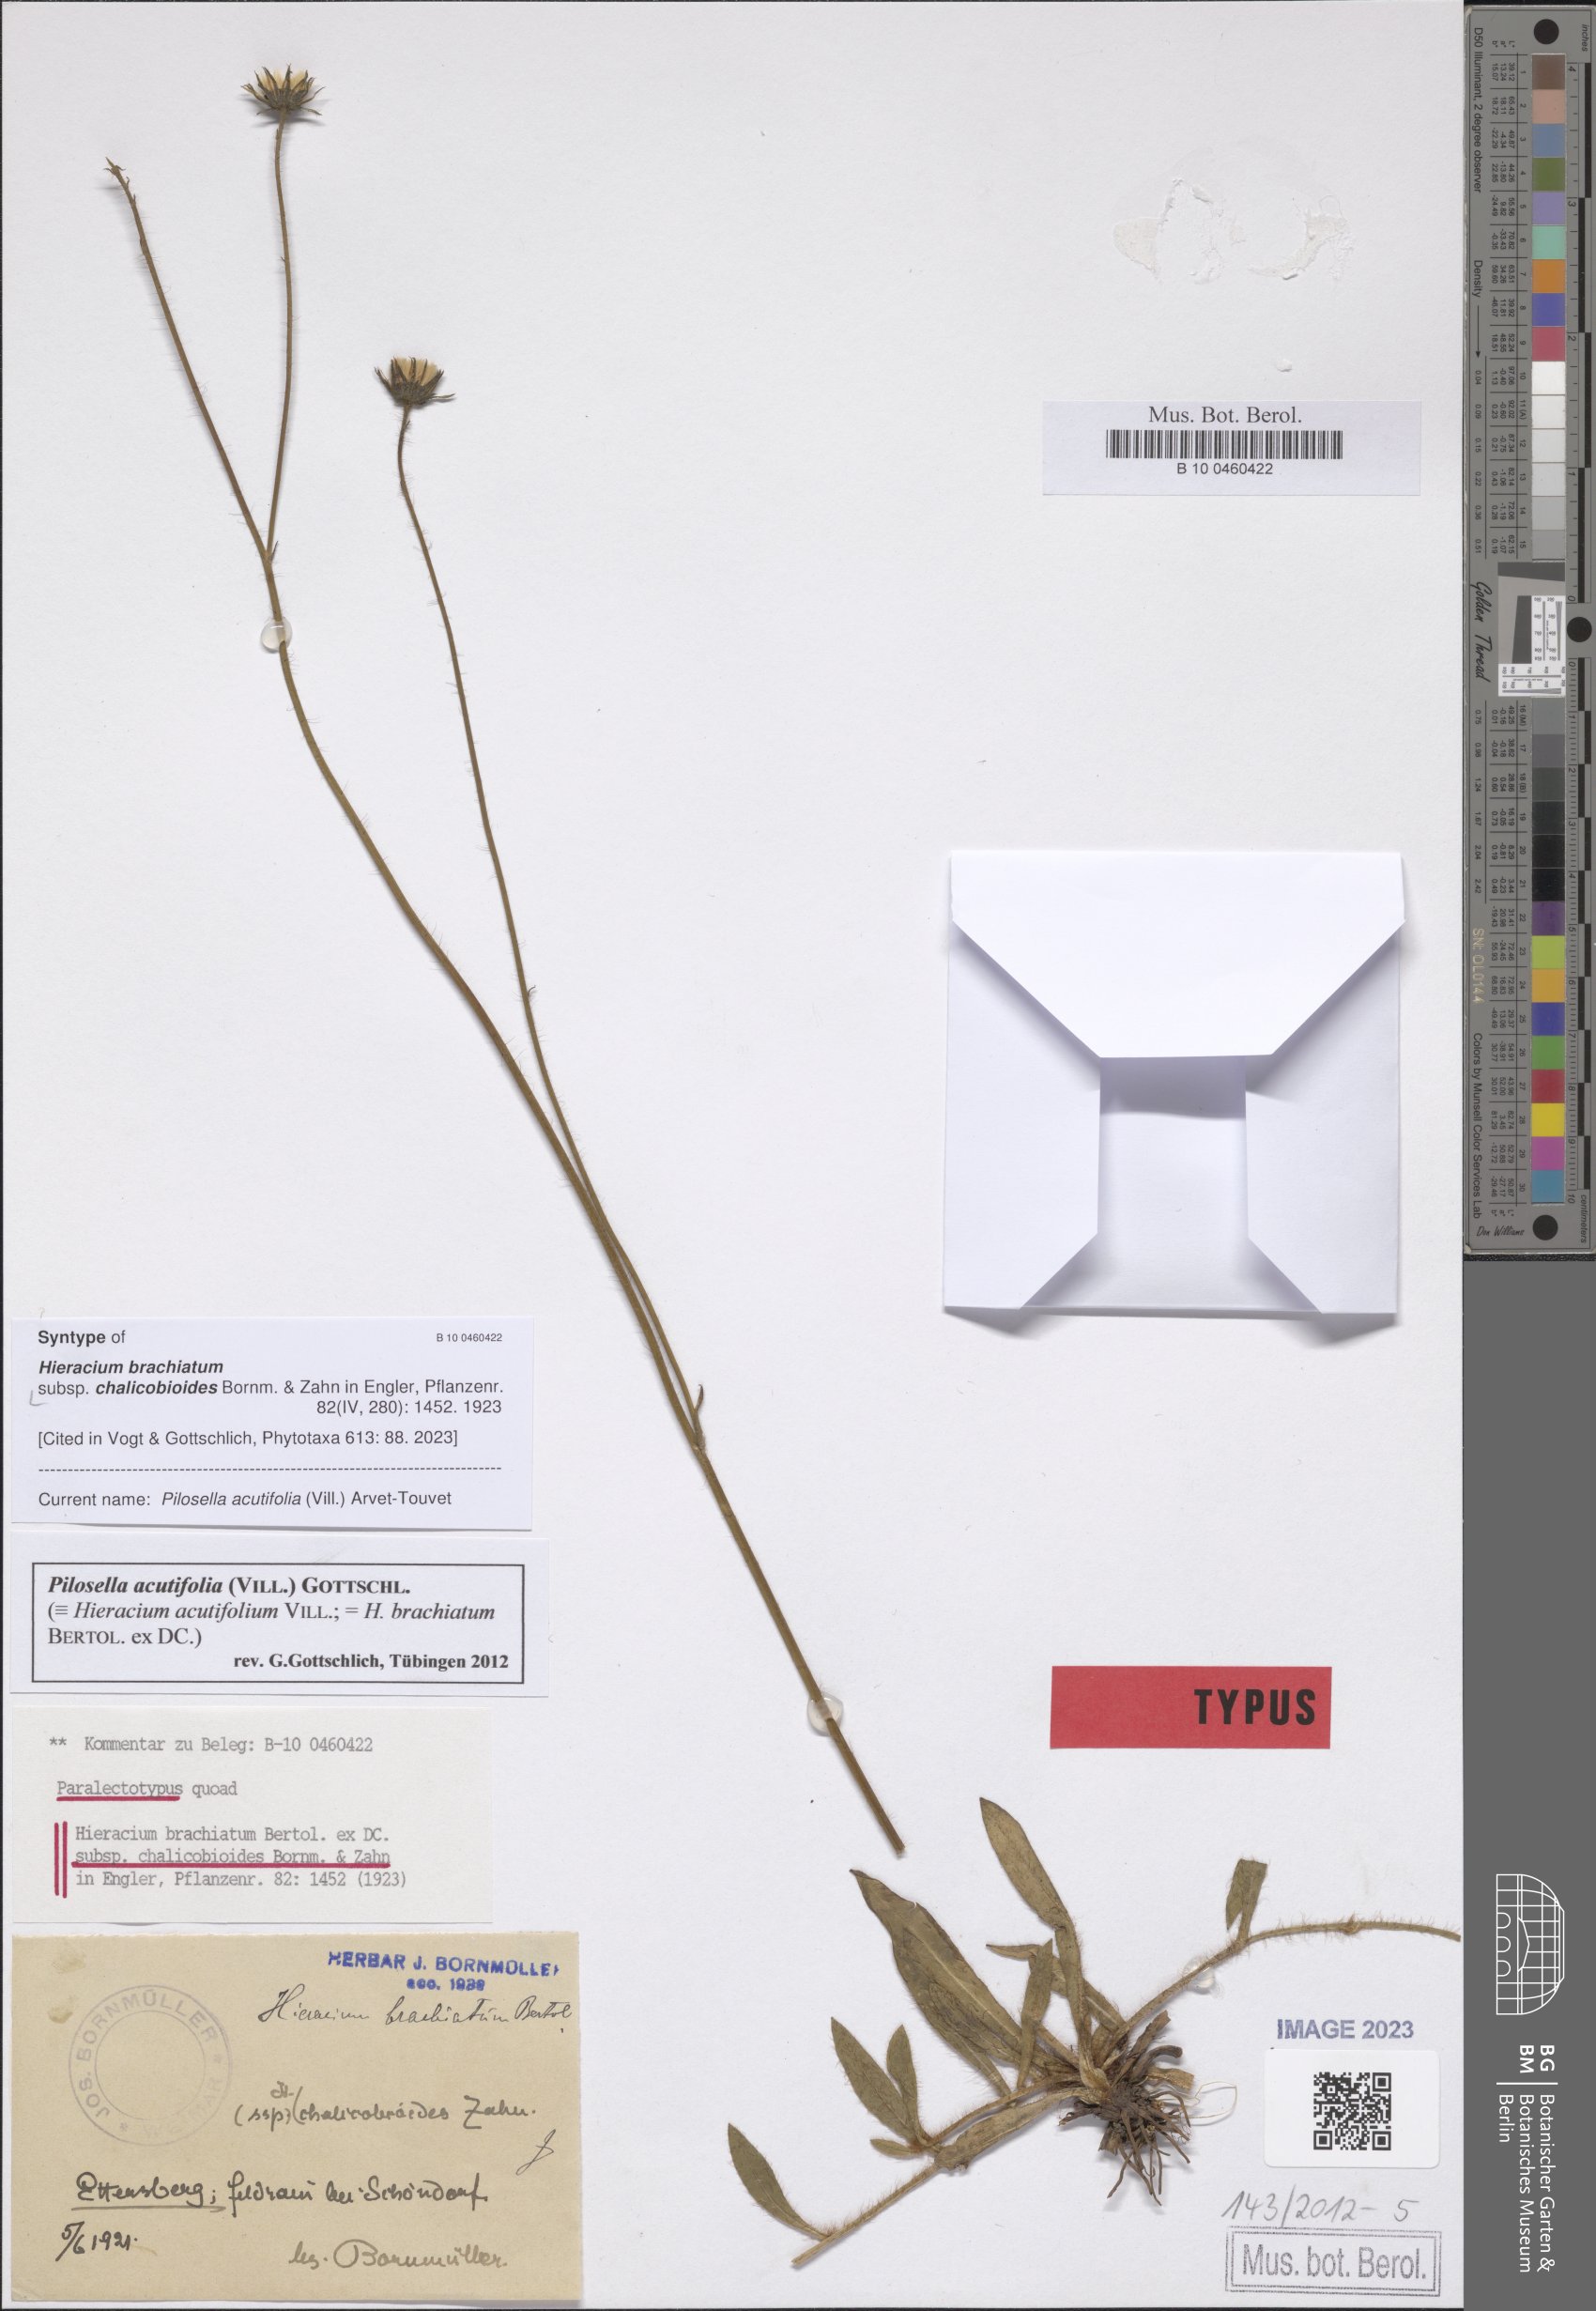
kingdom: Plantae
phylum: Tracheophyta
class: Magnoliopsida
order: Asterales
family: Asteraceae
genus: Pilosella
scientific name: Pilosella acutifolia
